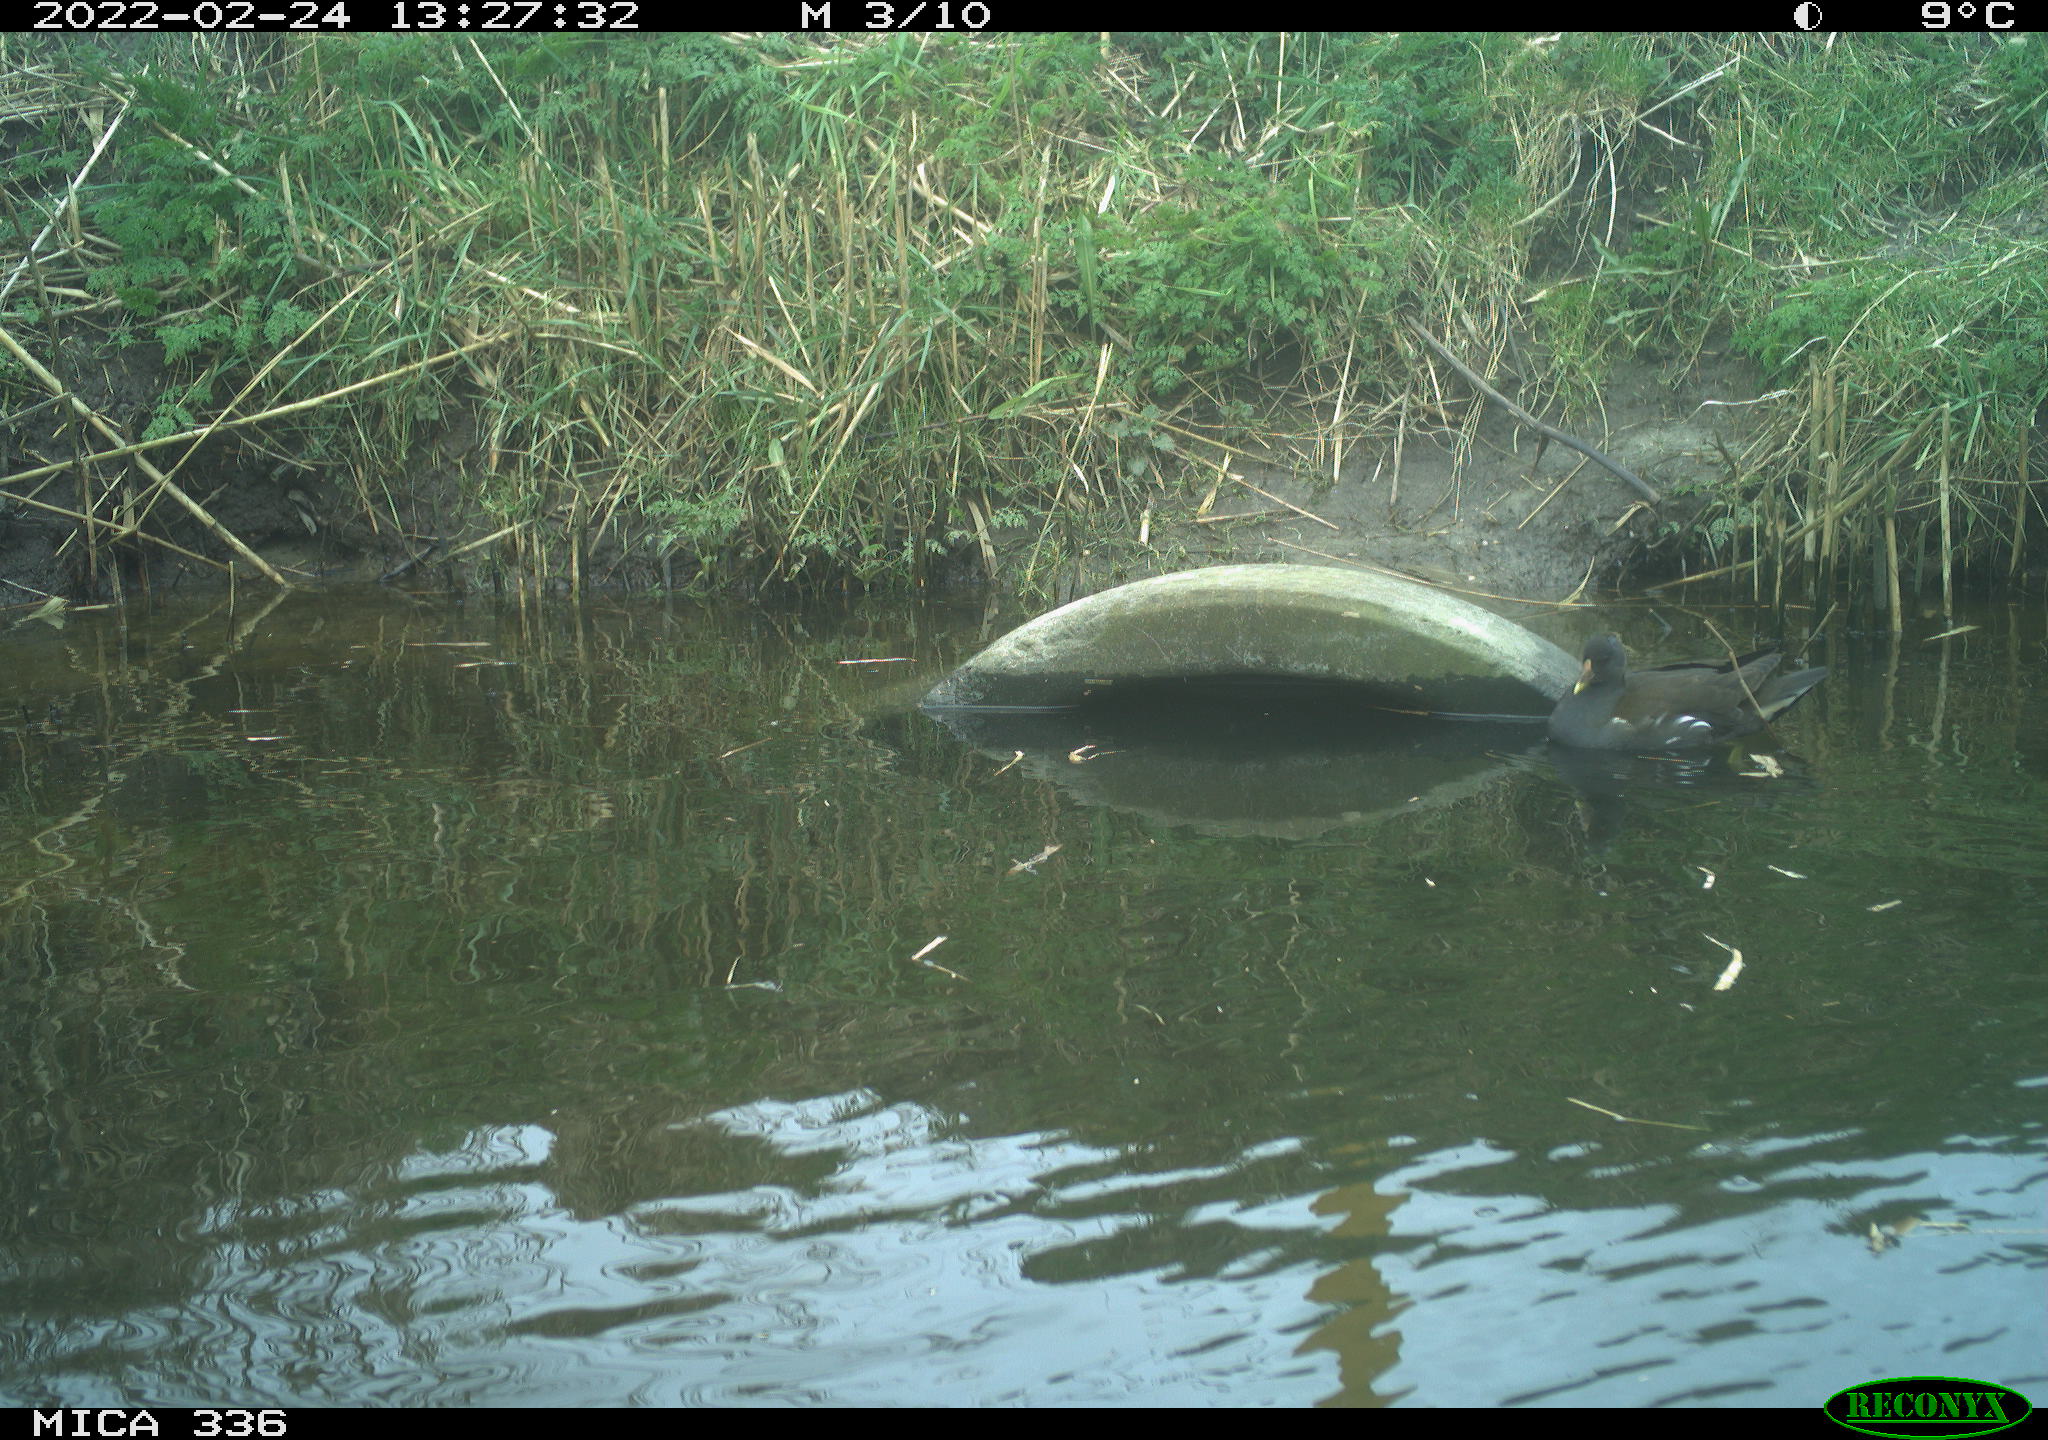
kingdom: Animalia
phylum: Chordata
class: Aves
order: Gruiformes
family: Rallidae
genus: Gallinula
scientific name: Gallinula chloropus
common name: Common moorhen
